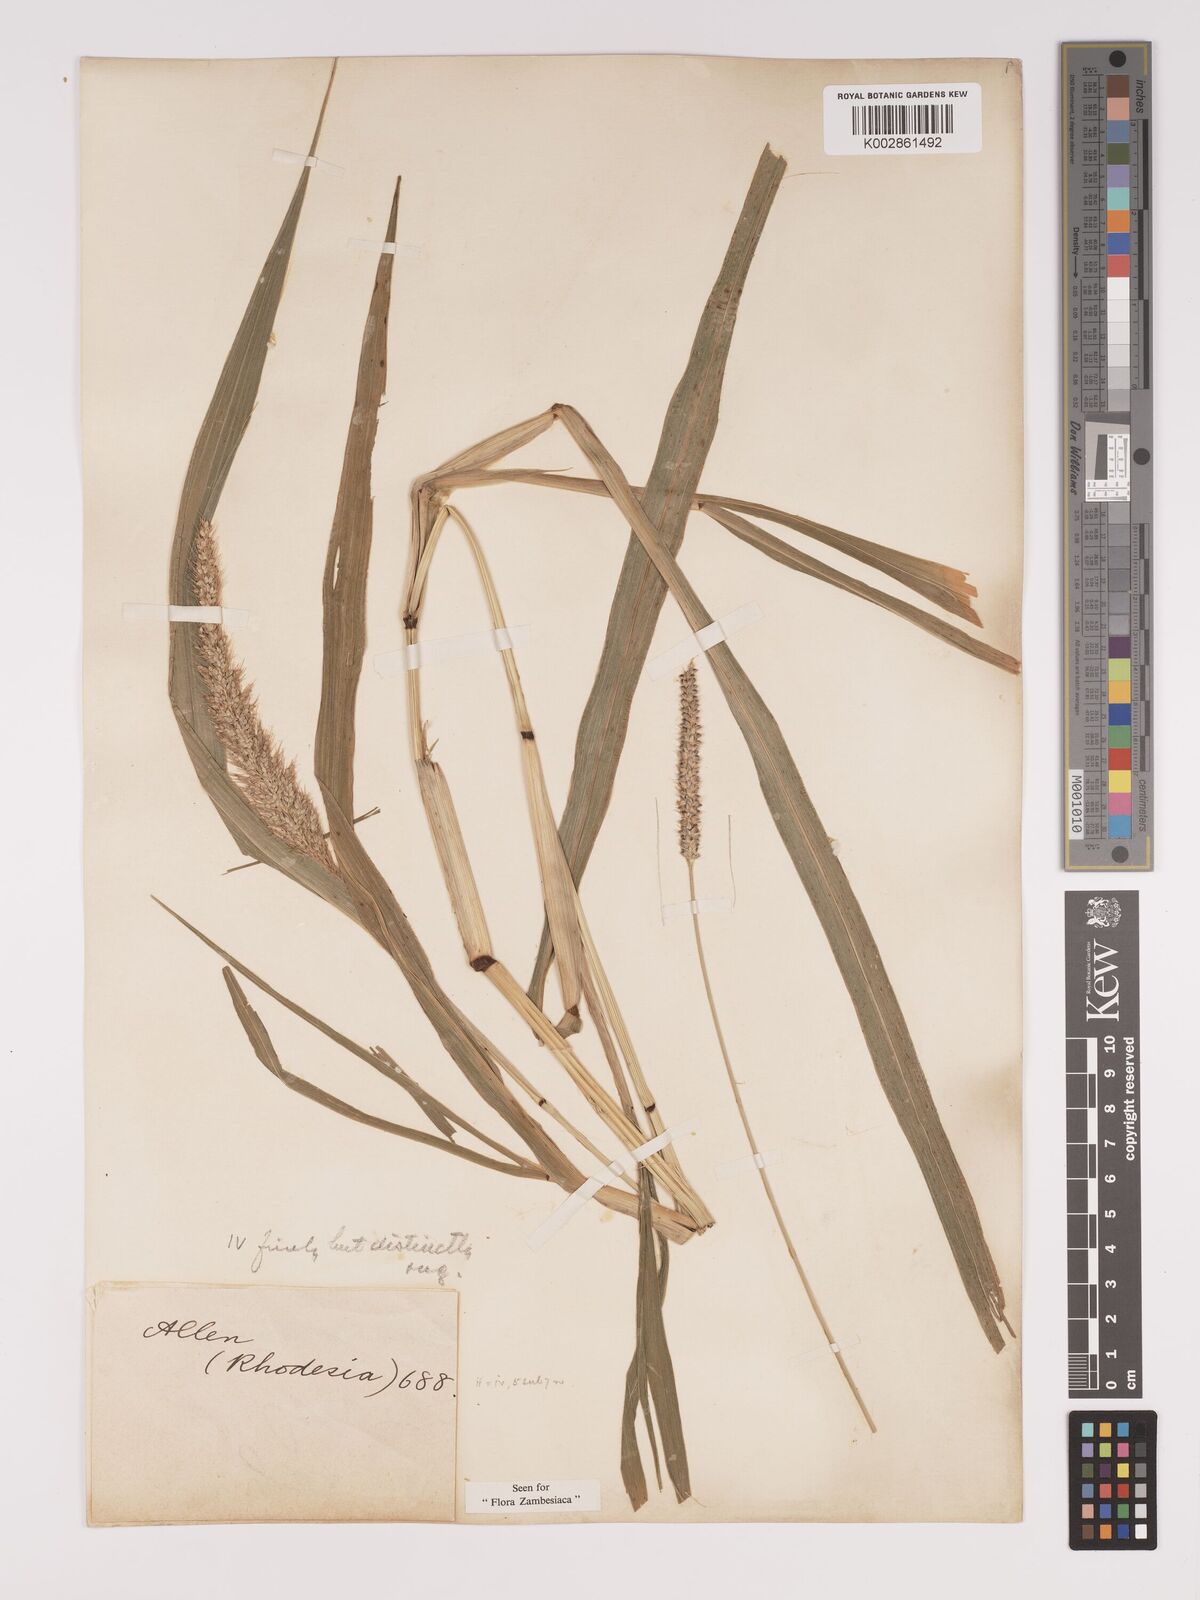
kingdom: Plantae
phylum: Tracheophyta
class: Liliopsida
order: Poales
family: Poaceae
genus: Setaria
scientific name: Setaria verticillata
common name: Hooked bristlegrass
